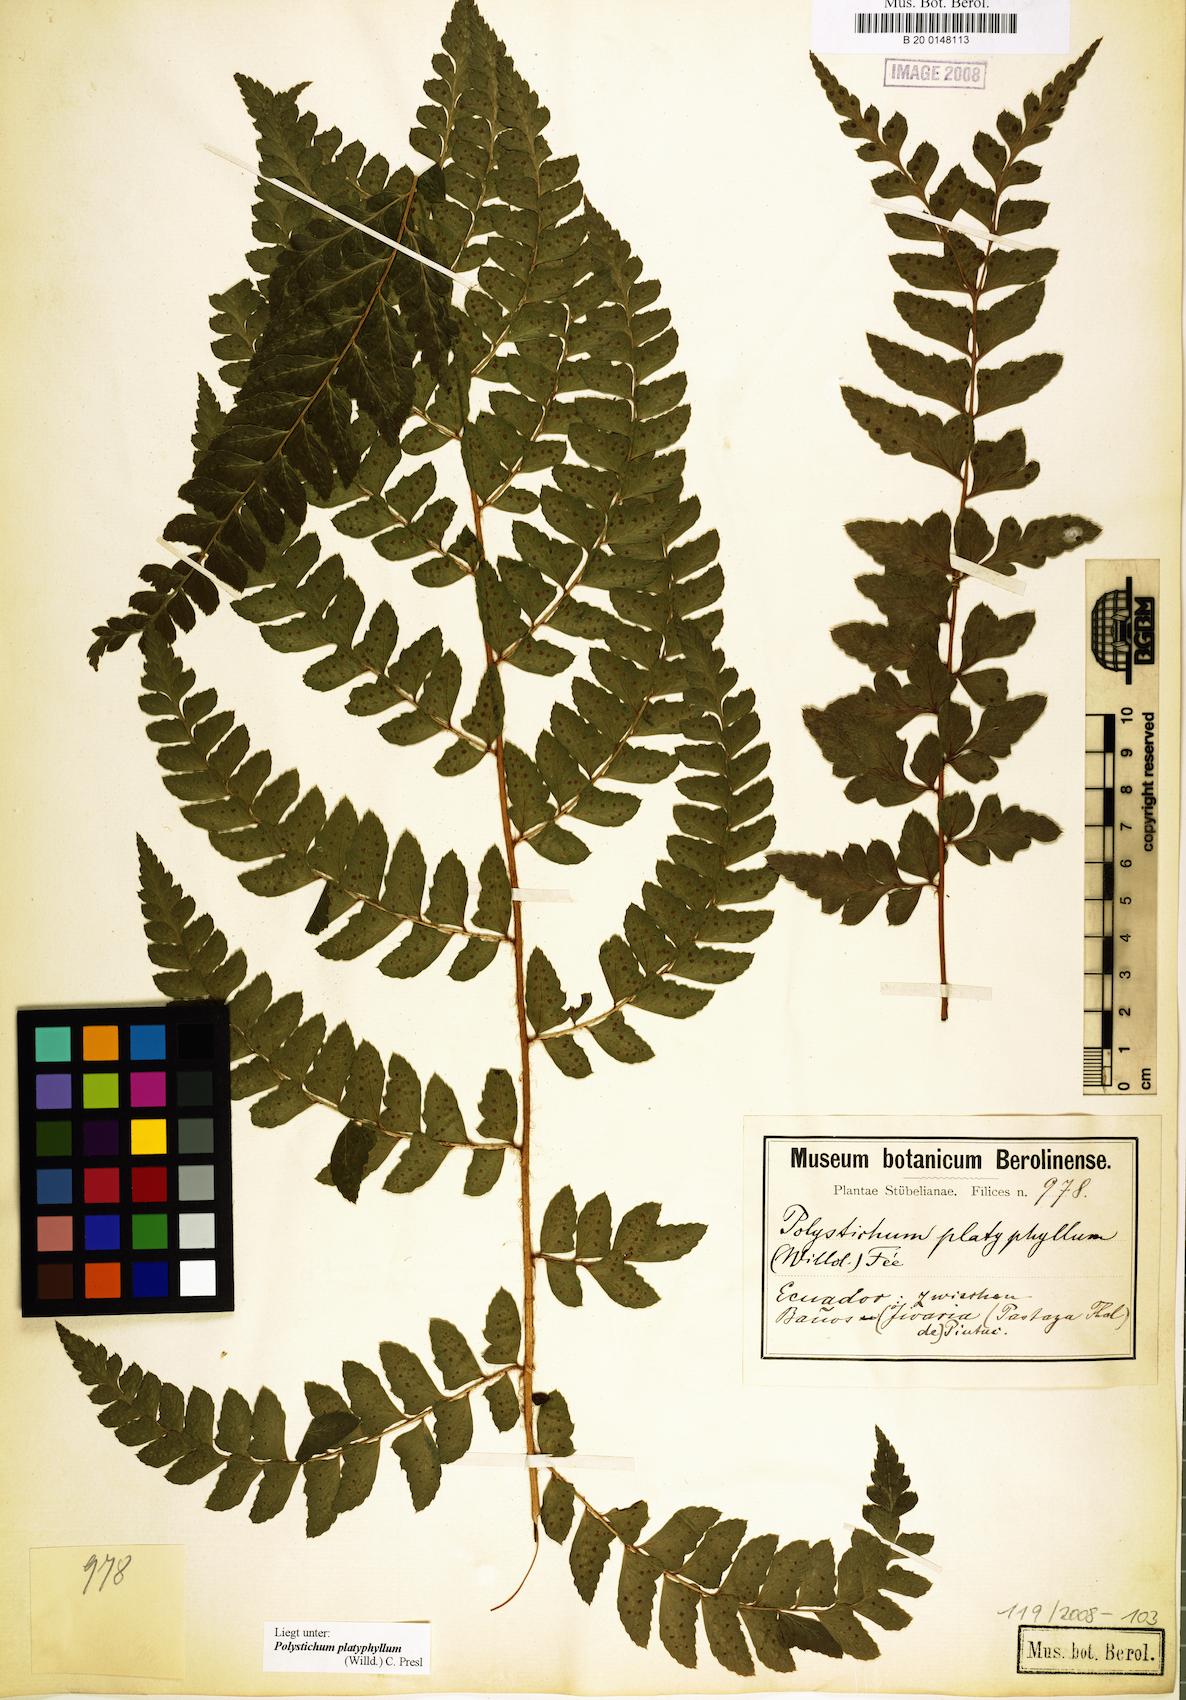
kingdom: Plantae
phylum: Tracheophyta
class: Polypodiopsida
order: Polypodiales
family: Dryopteridaceae
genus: Polystichum
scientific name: Polystichum platyphyllum
